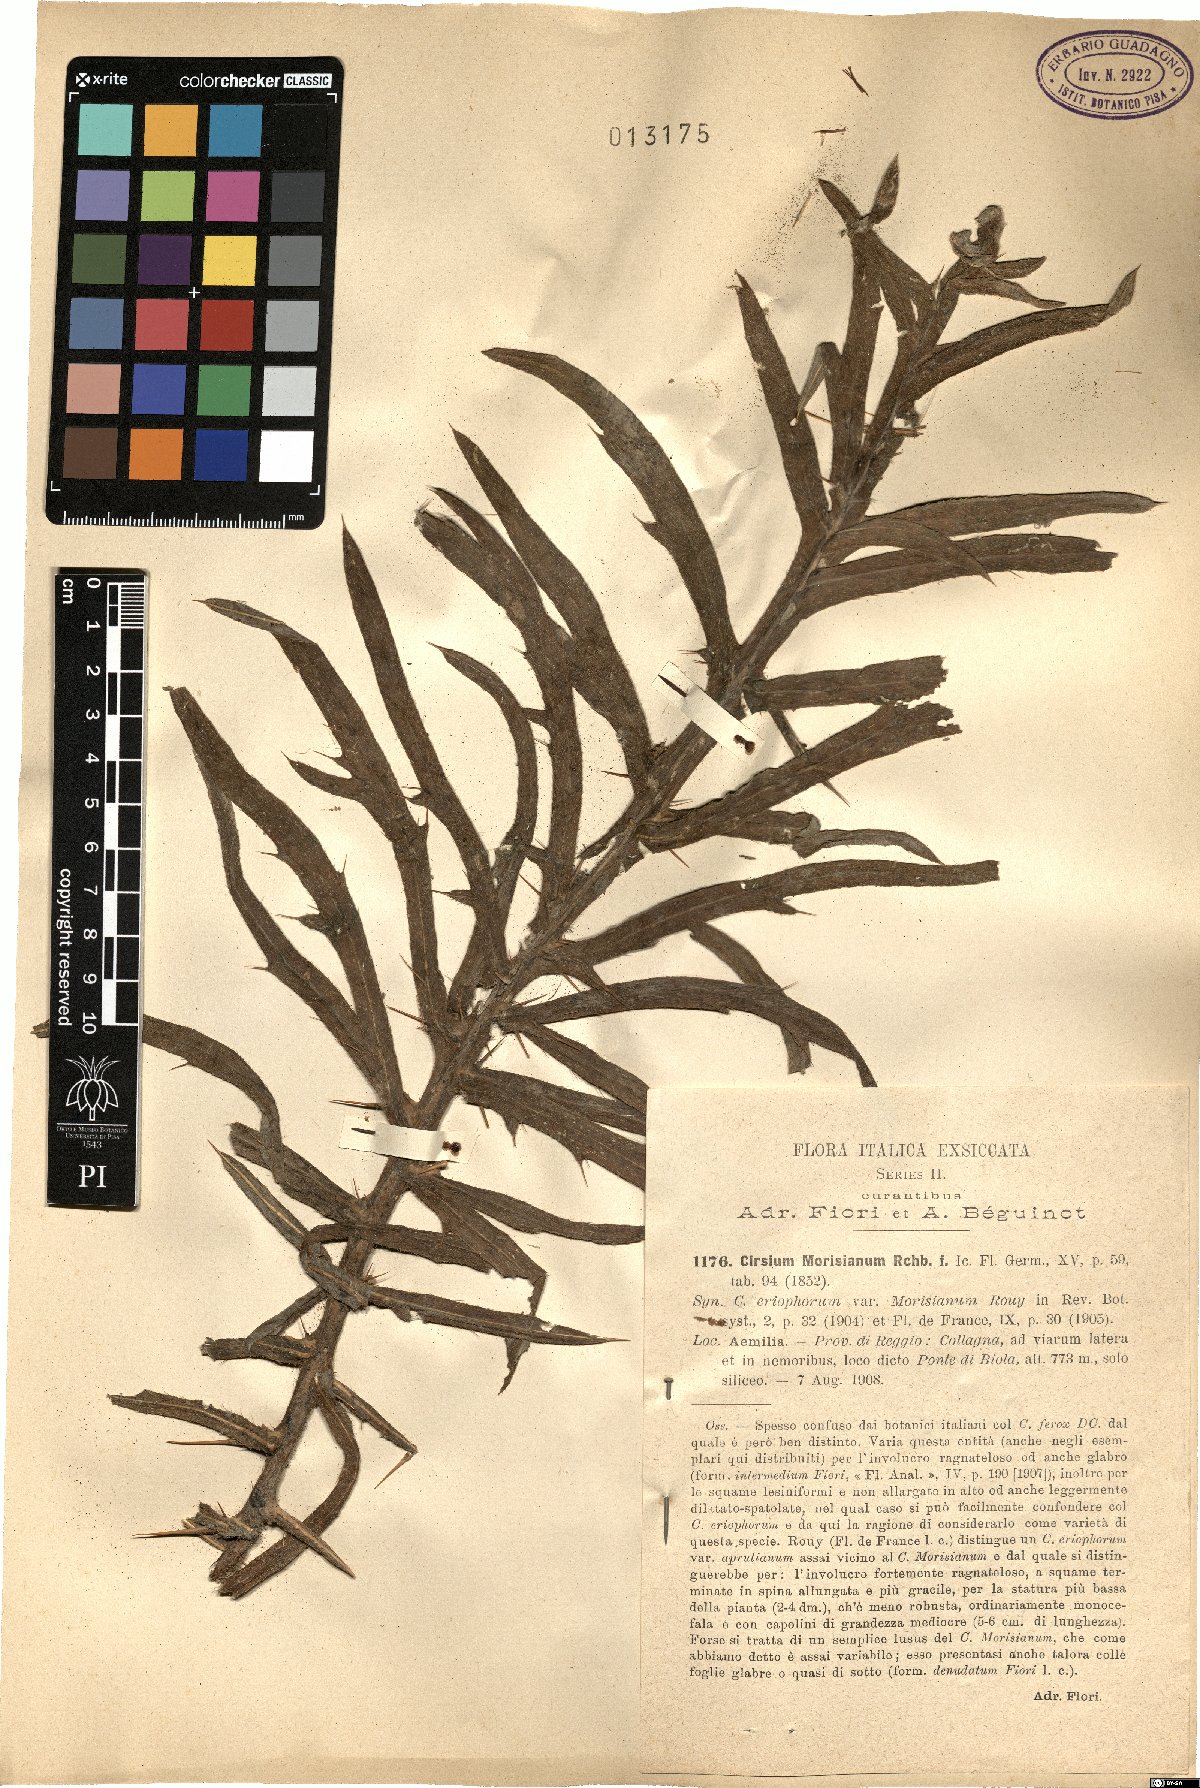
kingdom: Plantae
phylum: Tracheophyta
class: Magnoliopsida
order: Asterales
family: Asteraceae
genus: Lophiolepis
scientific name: Lophiolepis morisiana
